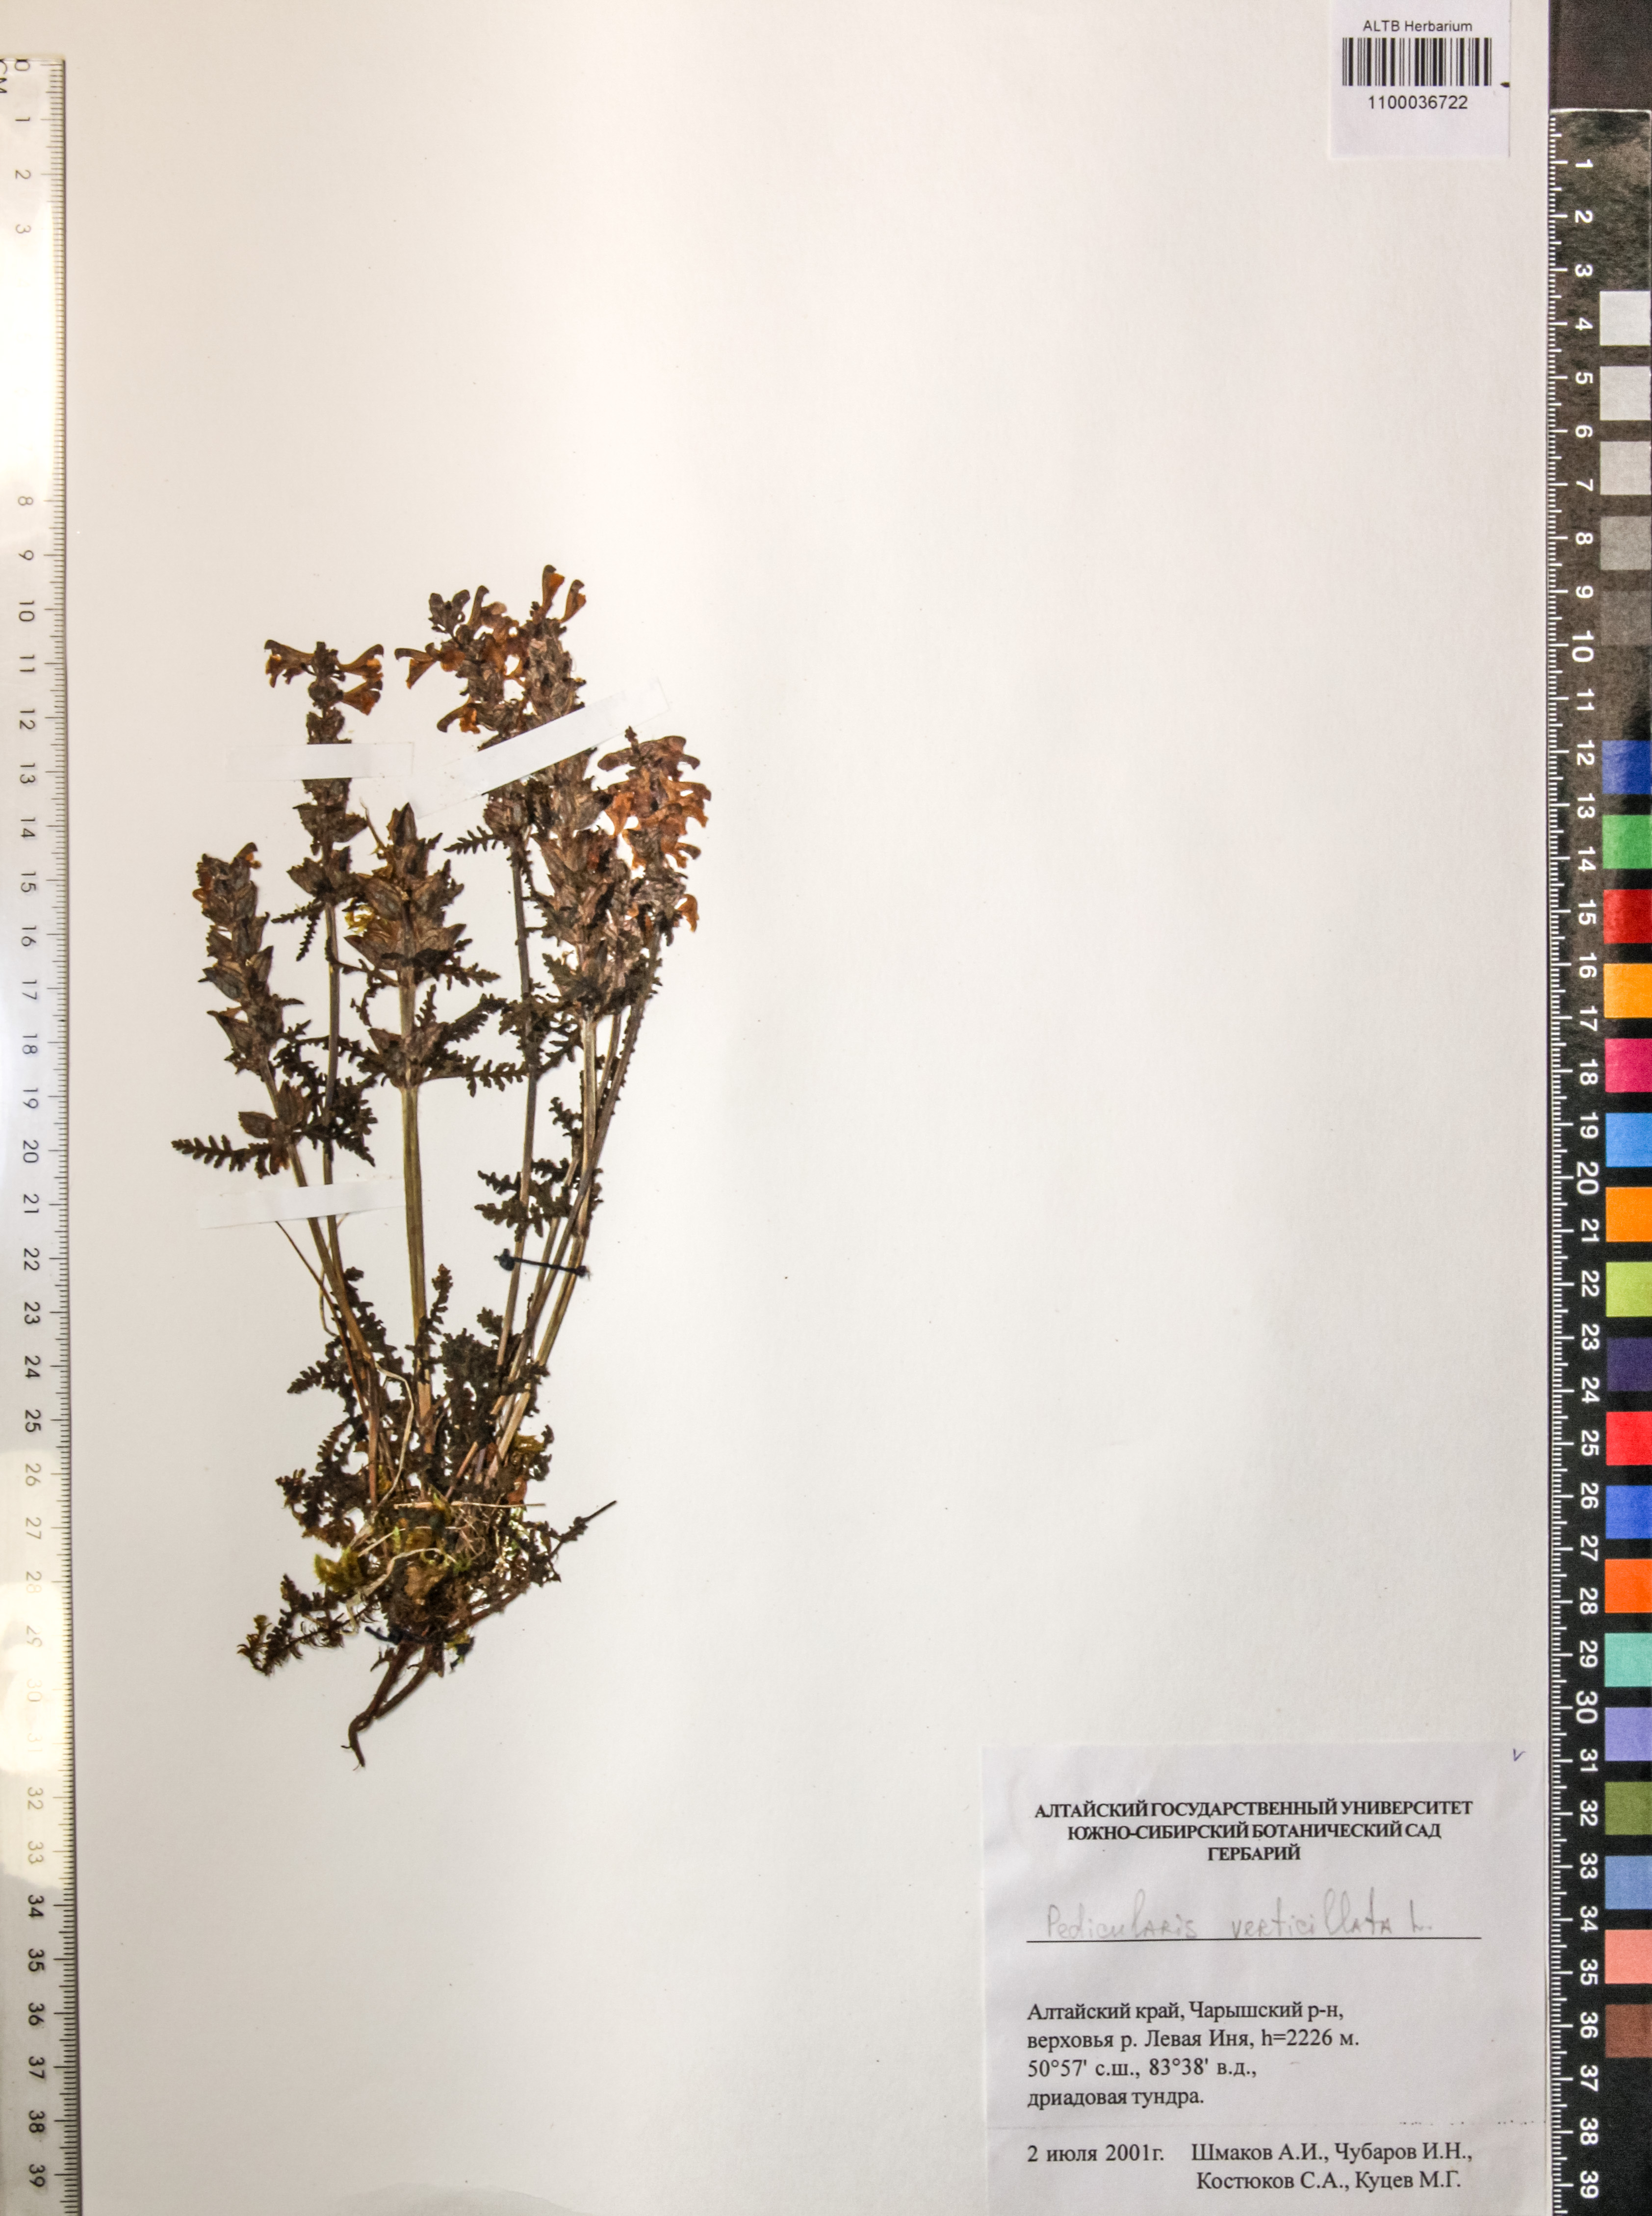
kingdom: Plantae
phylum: Tracheophyta
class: Magnoliopsida
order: Lamiales
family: Orobanchaceae
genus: Pedicularis
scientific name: Pedicularis verticillata
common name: Whorled lousewort
